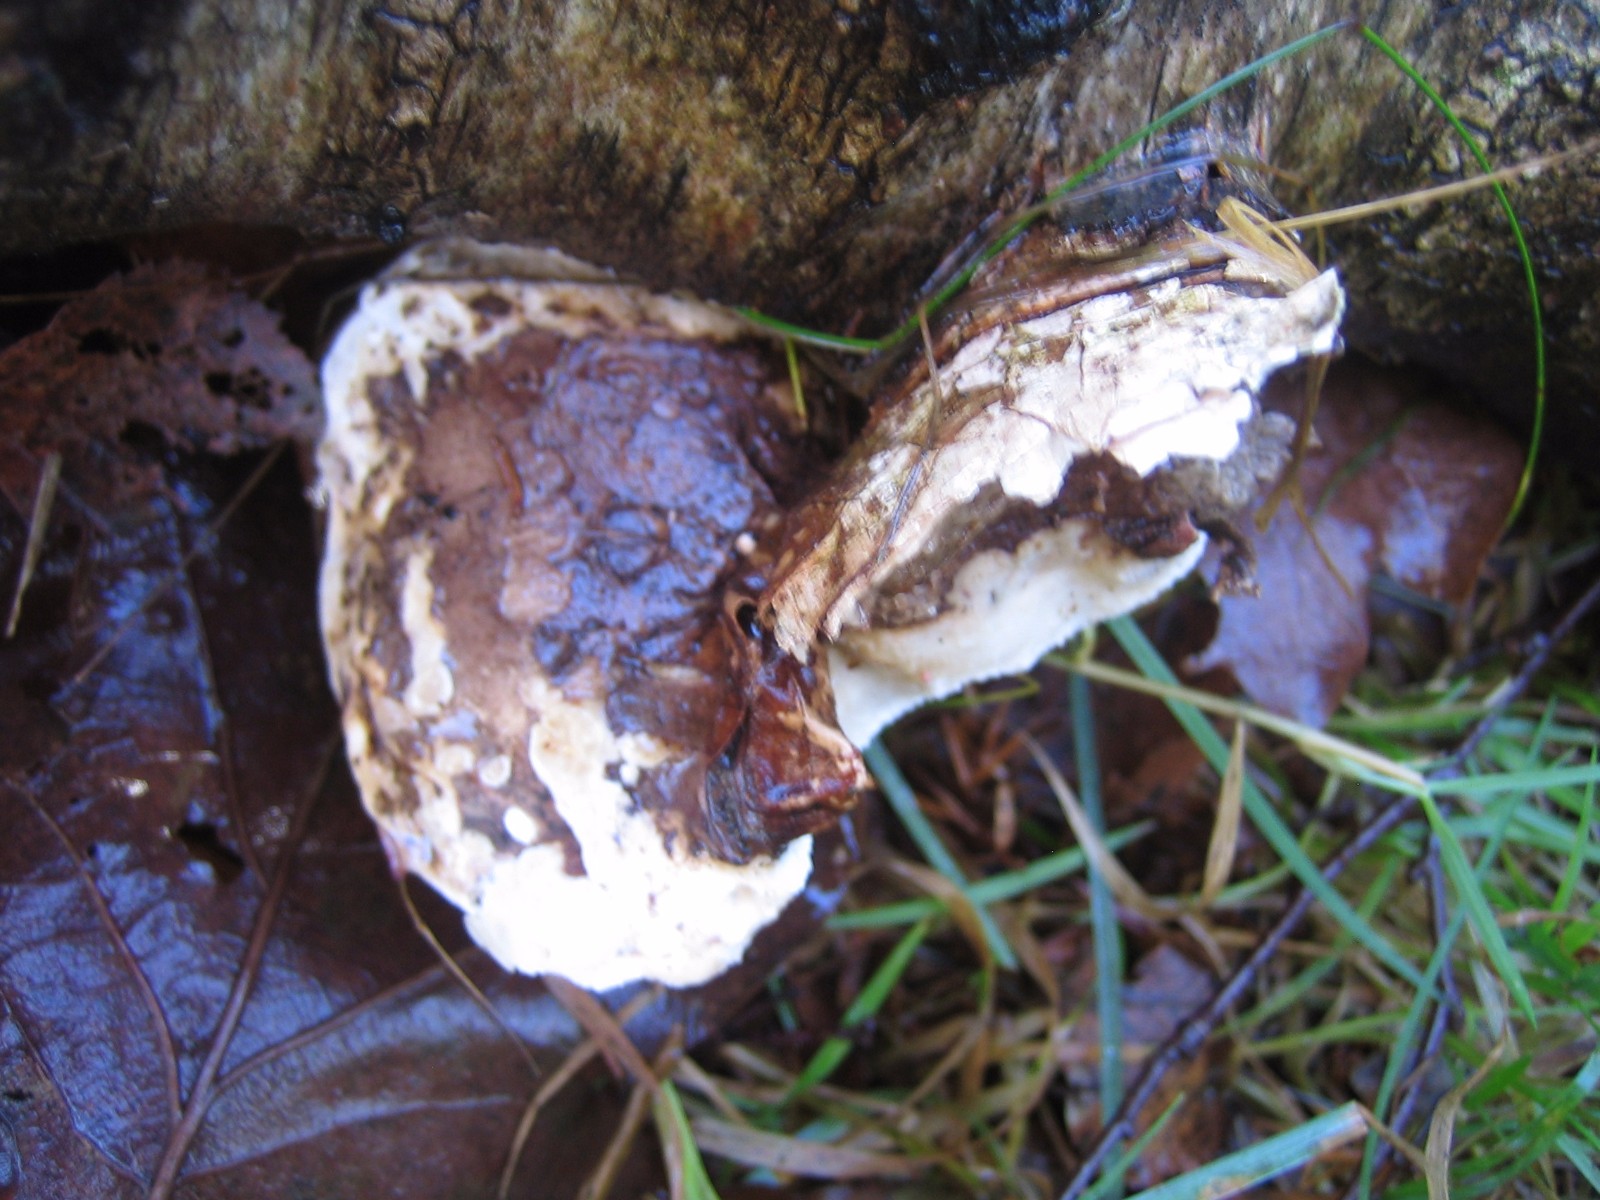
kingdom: Fungi
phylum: Basidiomycota
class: Agaricomycetes
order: Polyporales
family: Fomitopsidaceae
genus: Fomitopsis
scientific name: Fomitopsis betulina
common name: birkeporesvamp
